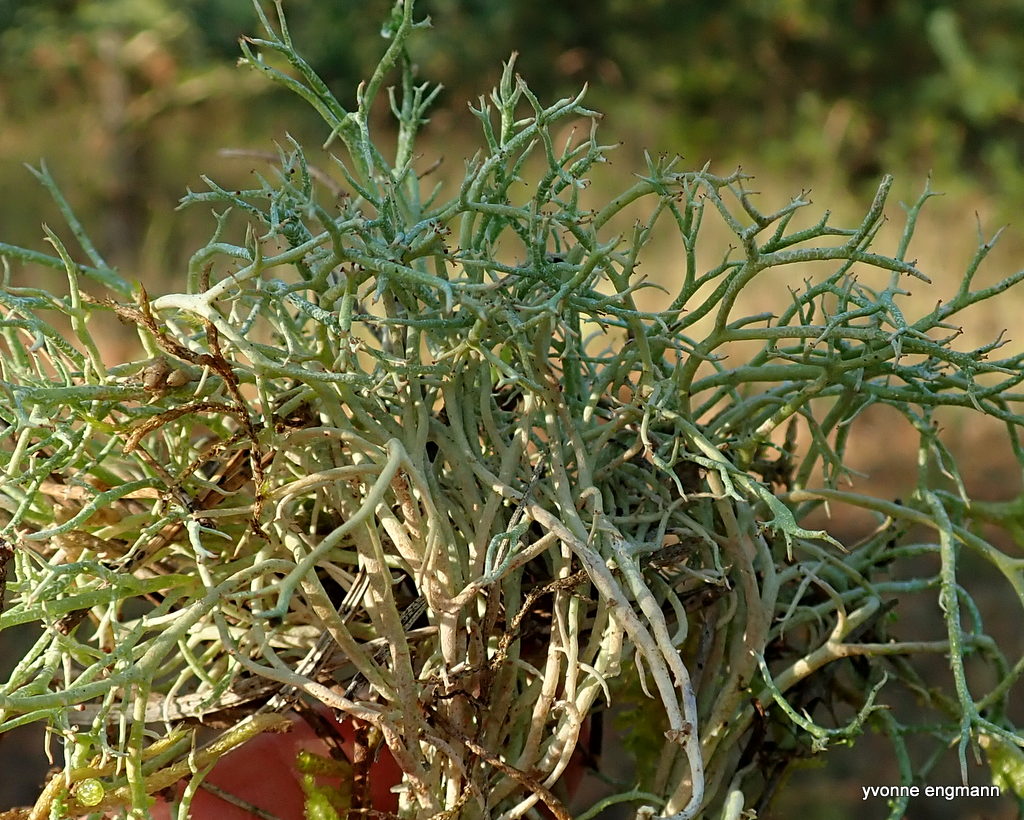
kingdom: Fungi
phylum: Ascomycota
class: Lecanoromycetes
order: Lecanorales
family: Cladoniaceae
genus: Cladonia
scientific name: Cladonia rangiformis
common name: spættet bægerlav
